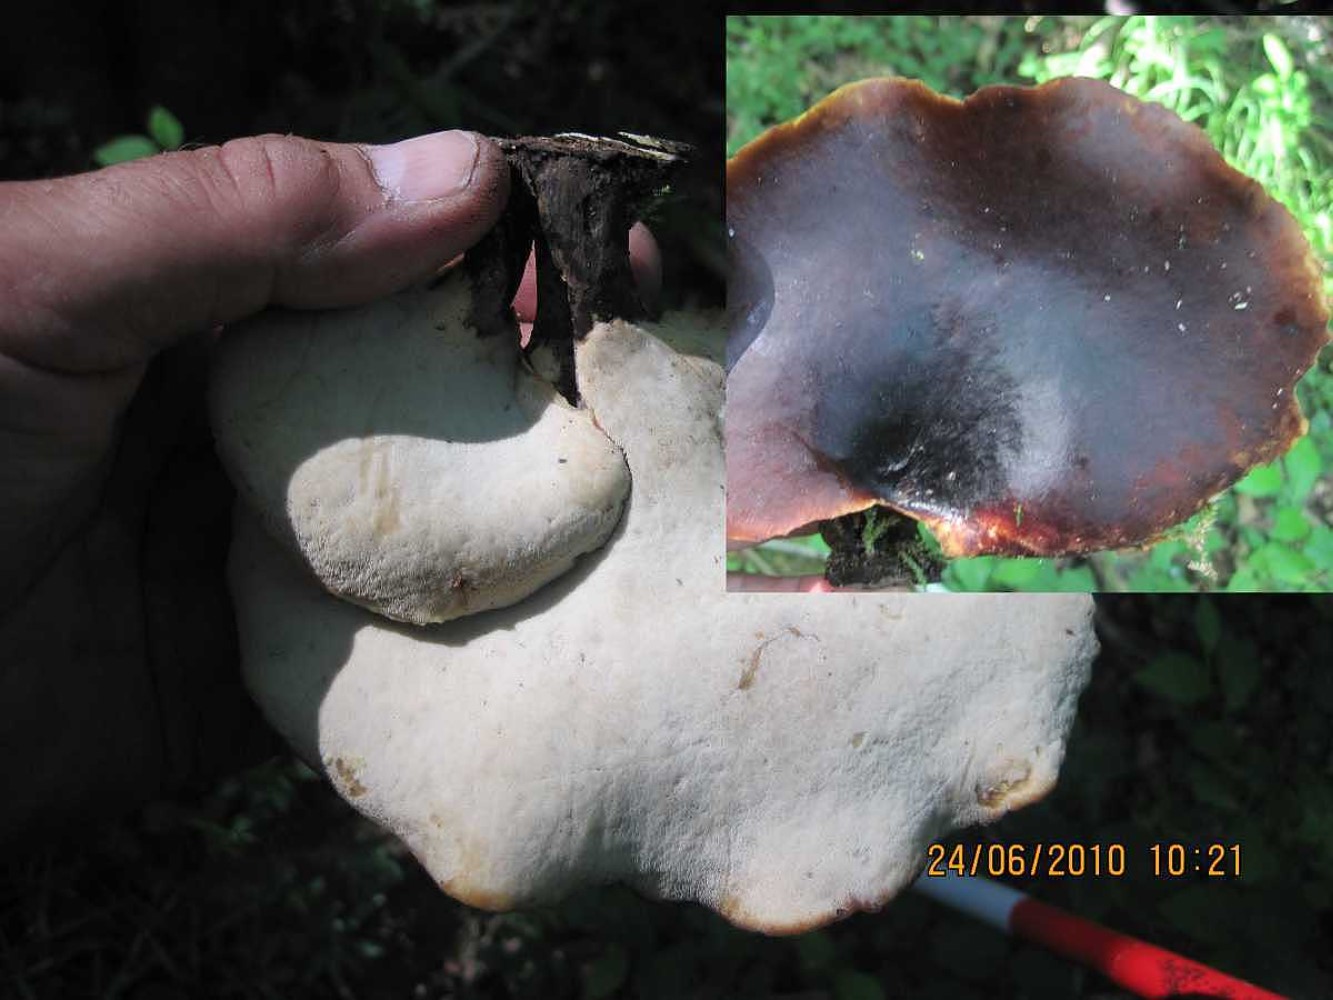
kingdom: Fungi
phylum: Basidiomycota
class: Agaricomycetes
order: Polyporales
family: Polyporaceae
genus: Picipes
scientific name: Picipes badius
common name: kastaniebrun stilkporesvamp
